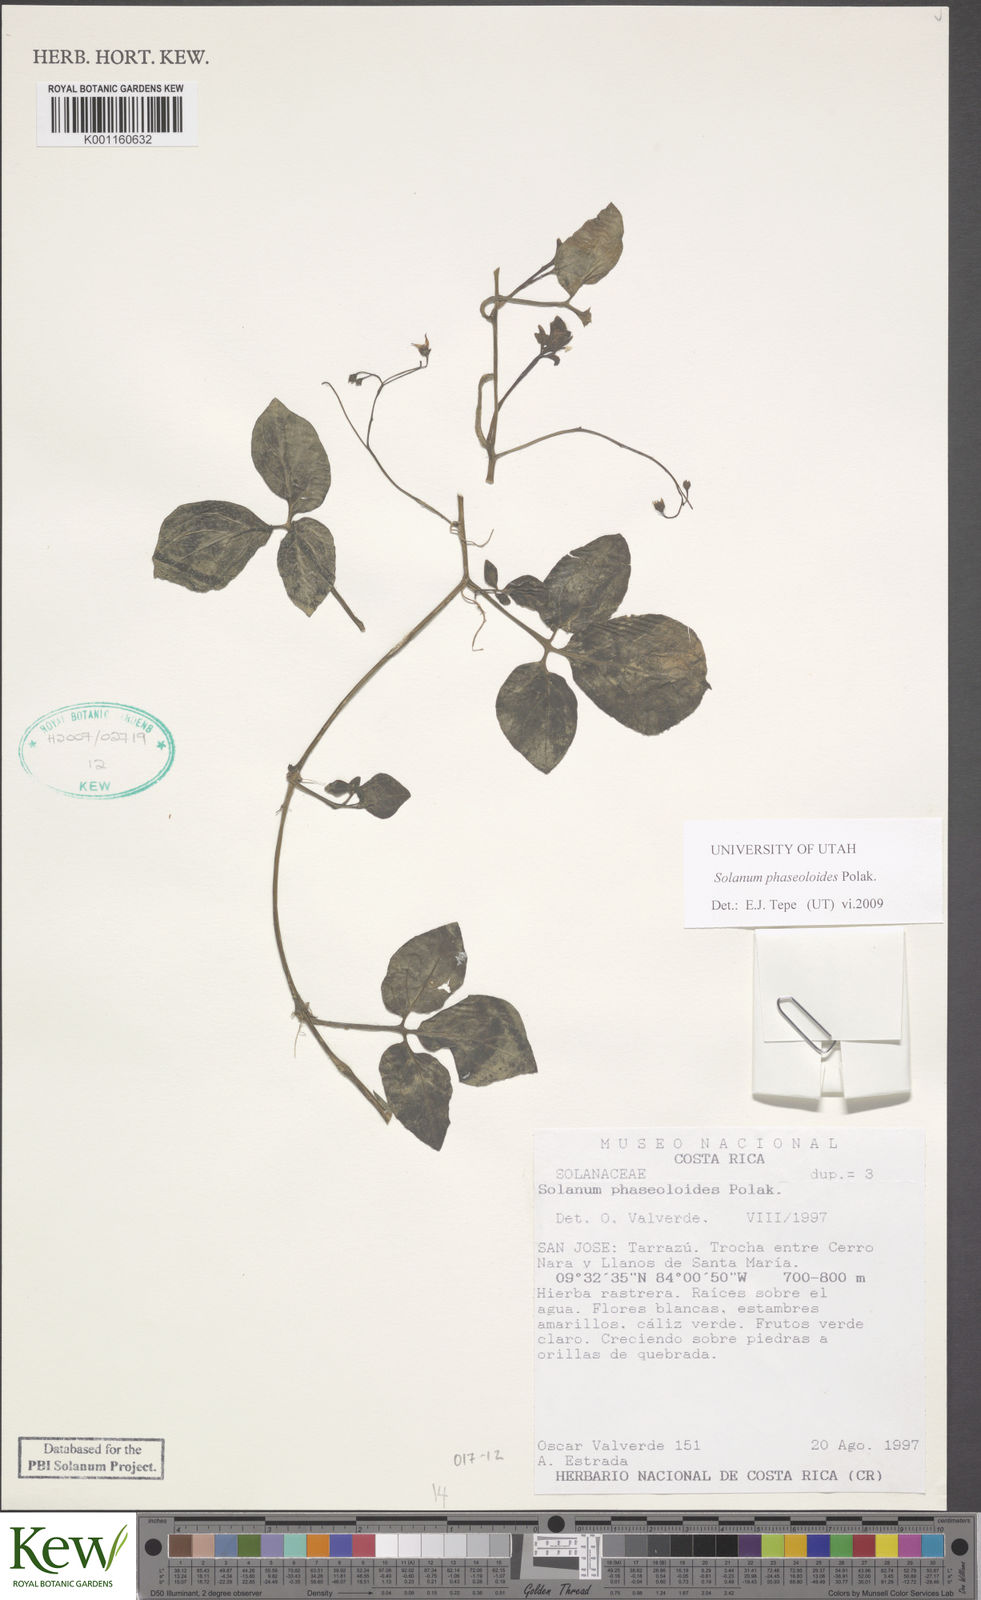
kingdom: Plantae
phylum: Tracheophyta
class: Magnoliopsida
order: Solanales
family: Solanaceae
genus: Solanum
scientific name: Solanum phaseoloides
